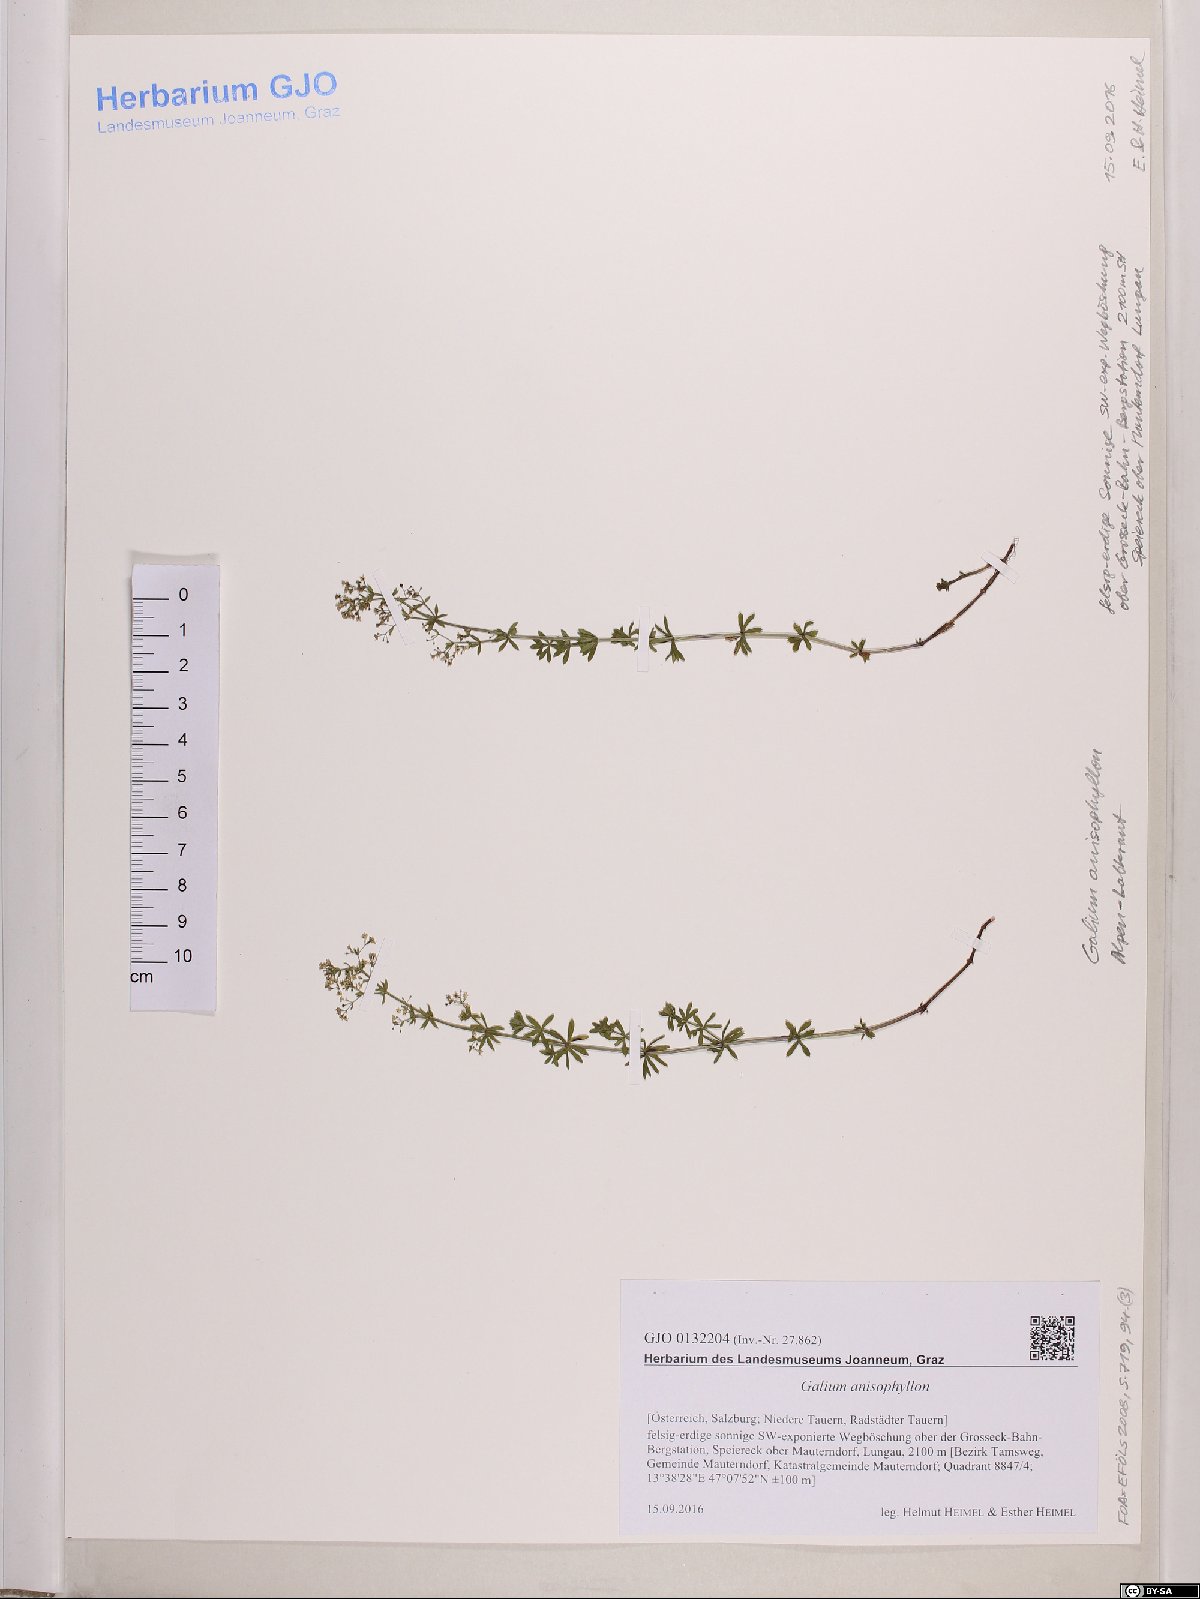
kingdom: Plantae
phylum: Tracheophyta
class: Magnoliopsida
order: Gentianales
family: Rubiaceae
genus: Galium
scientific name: Galium anisophyllon
